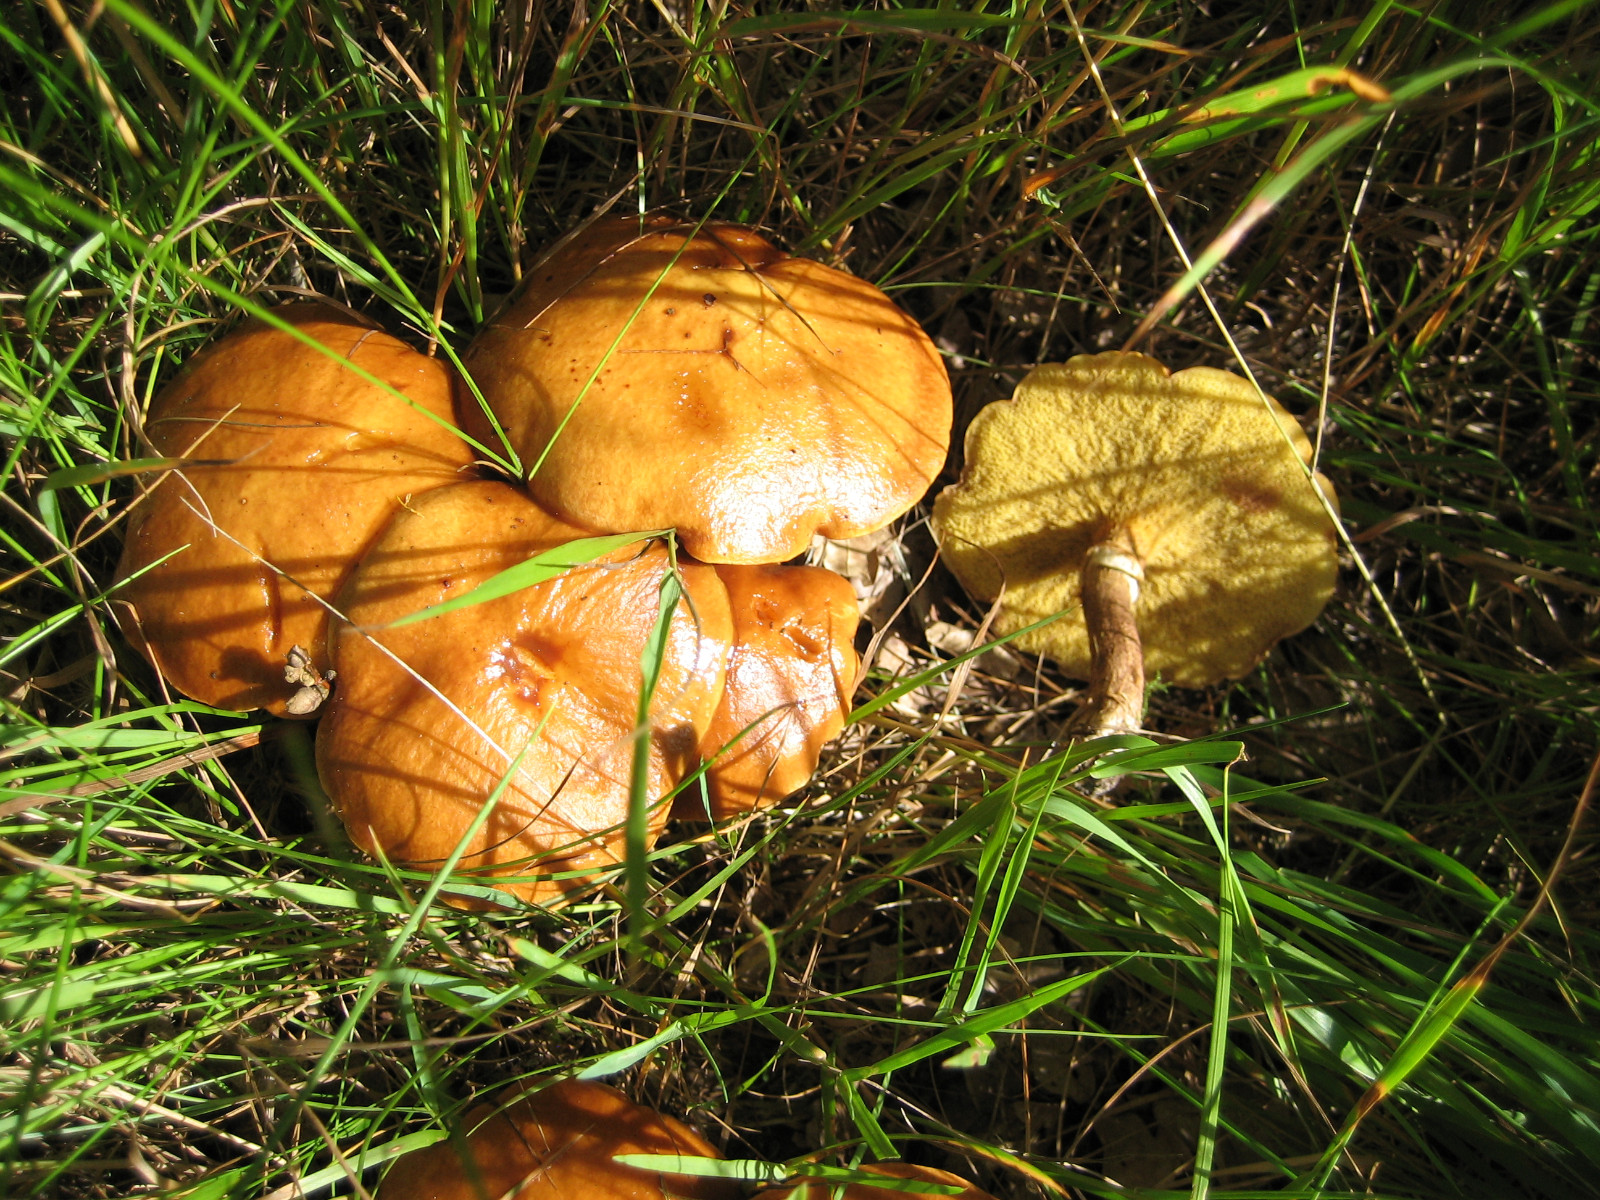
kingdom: Fungi
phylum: Basidiomycota
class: Agaricomycetes
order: Boletales
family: Suillaceae
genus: Suillus
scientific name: Suillus grevillei
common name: lærke-slimrørhat
